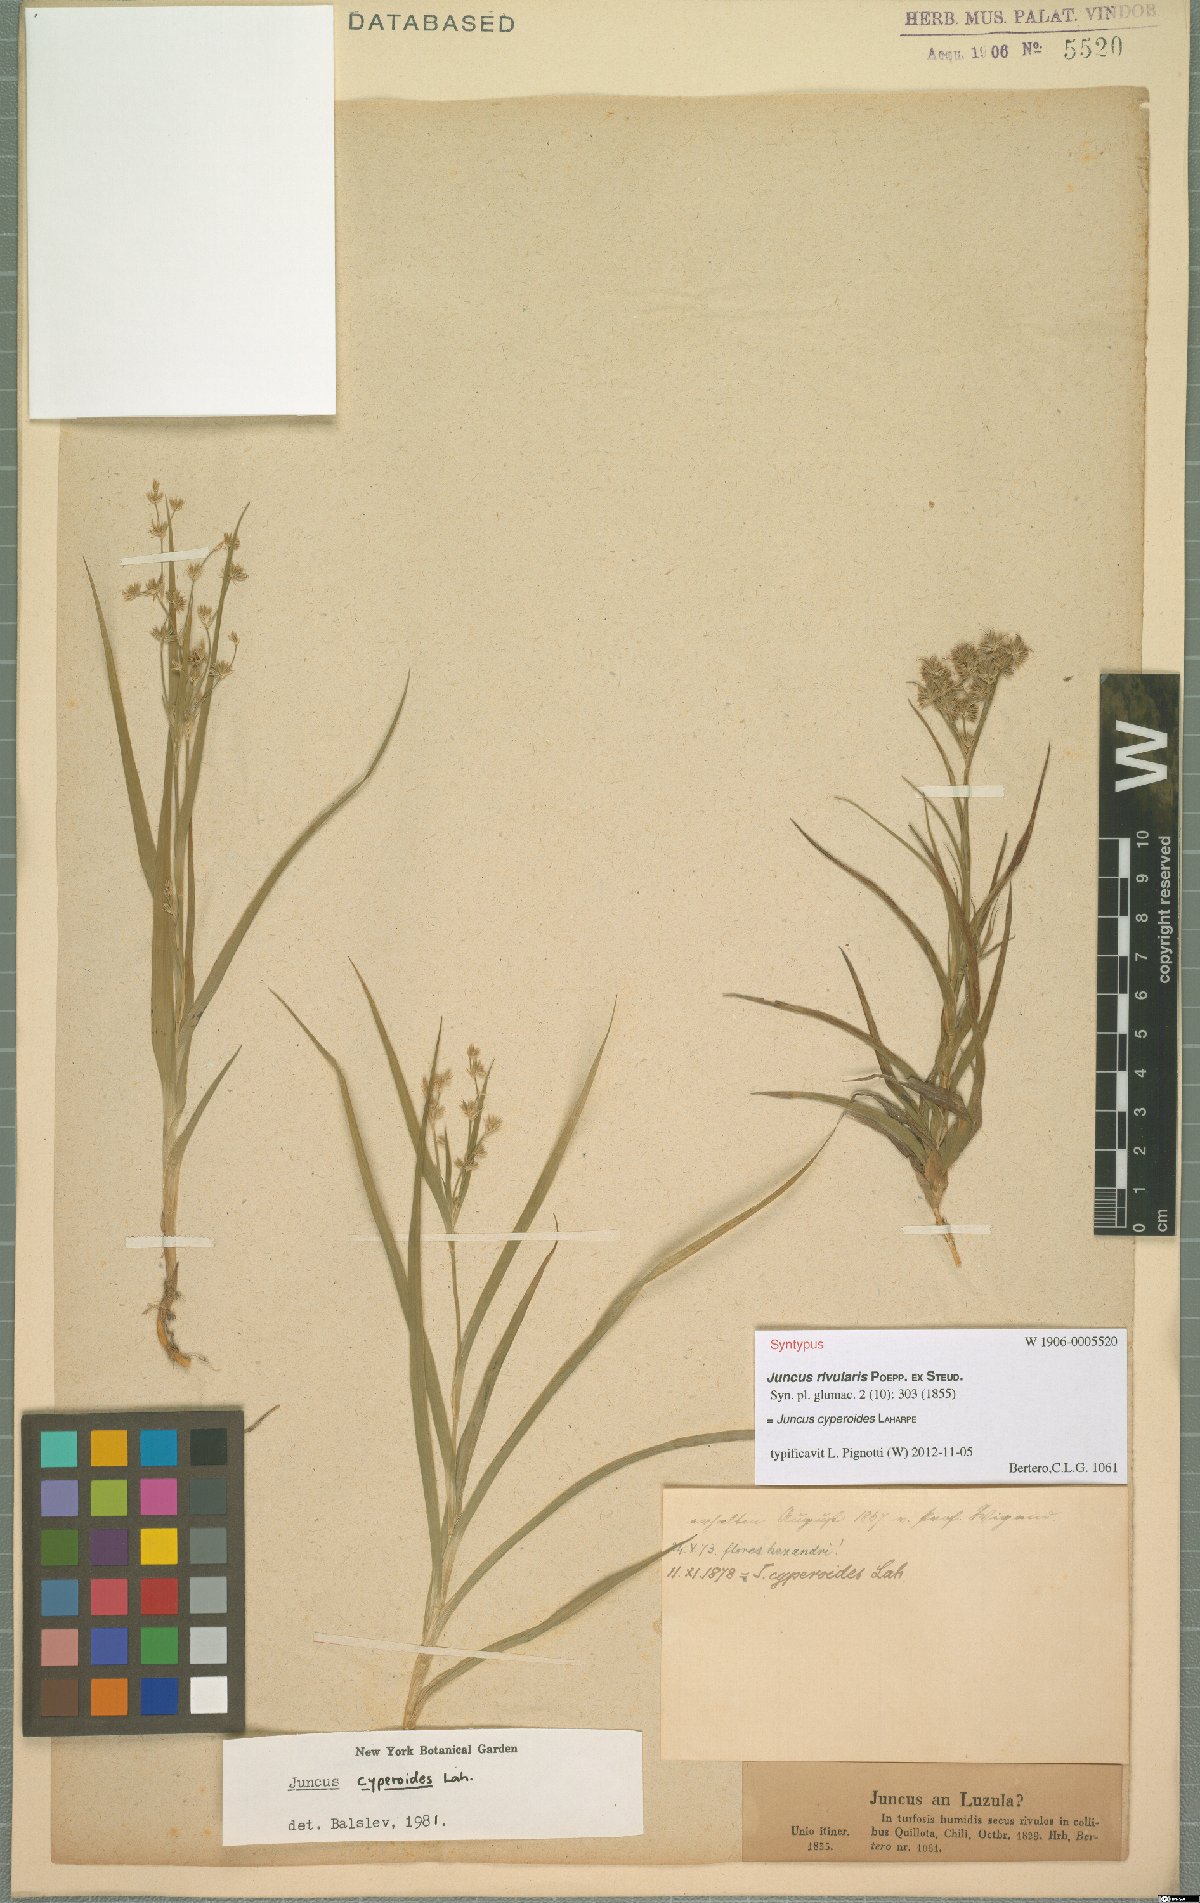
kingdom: Plantae
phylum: Tracheophyta
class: Liliopsida
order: Poales
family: Juncaceae
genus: Juncus
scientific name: Juncus cyperoides
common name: Forbestown rush
